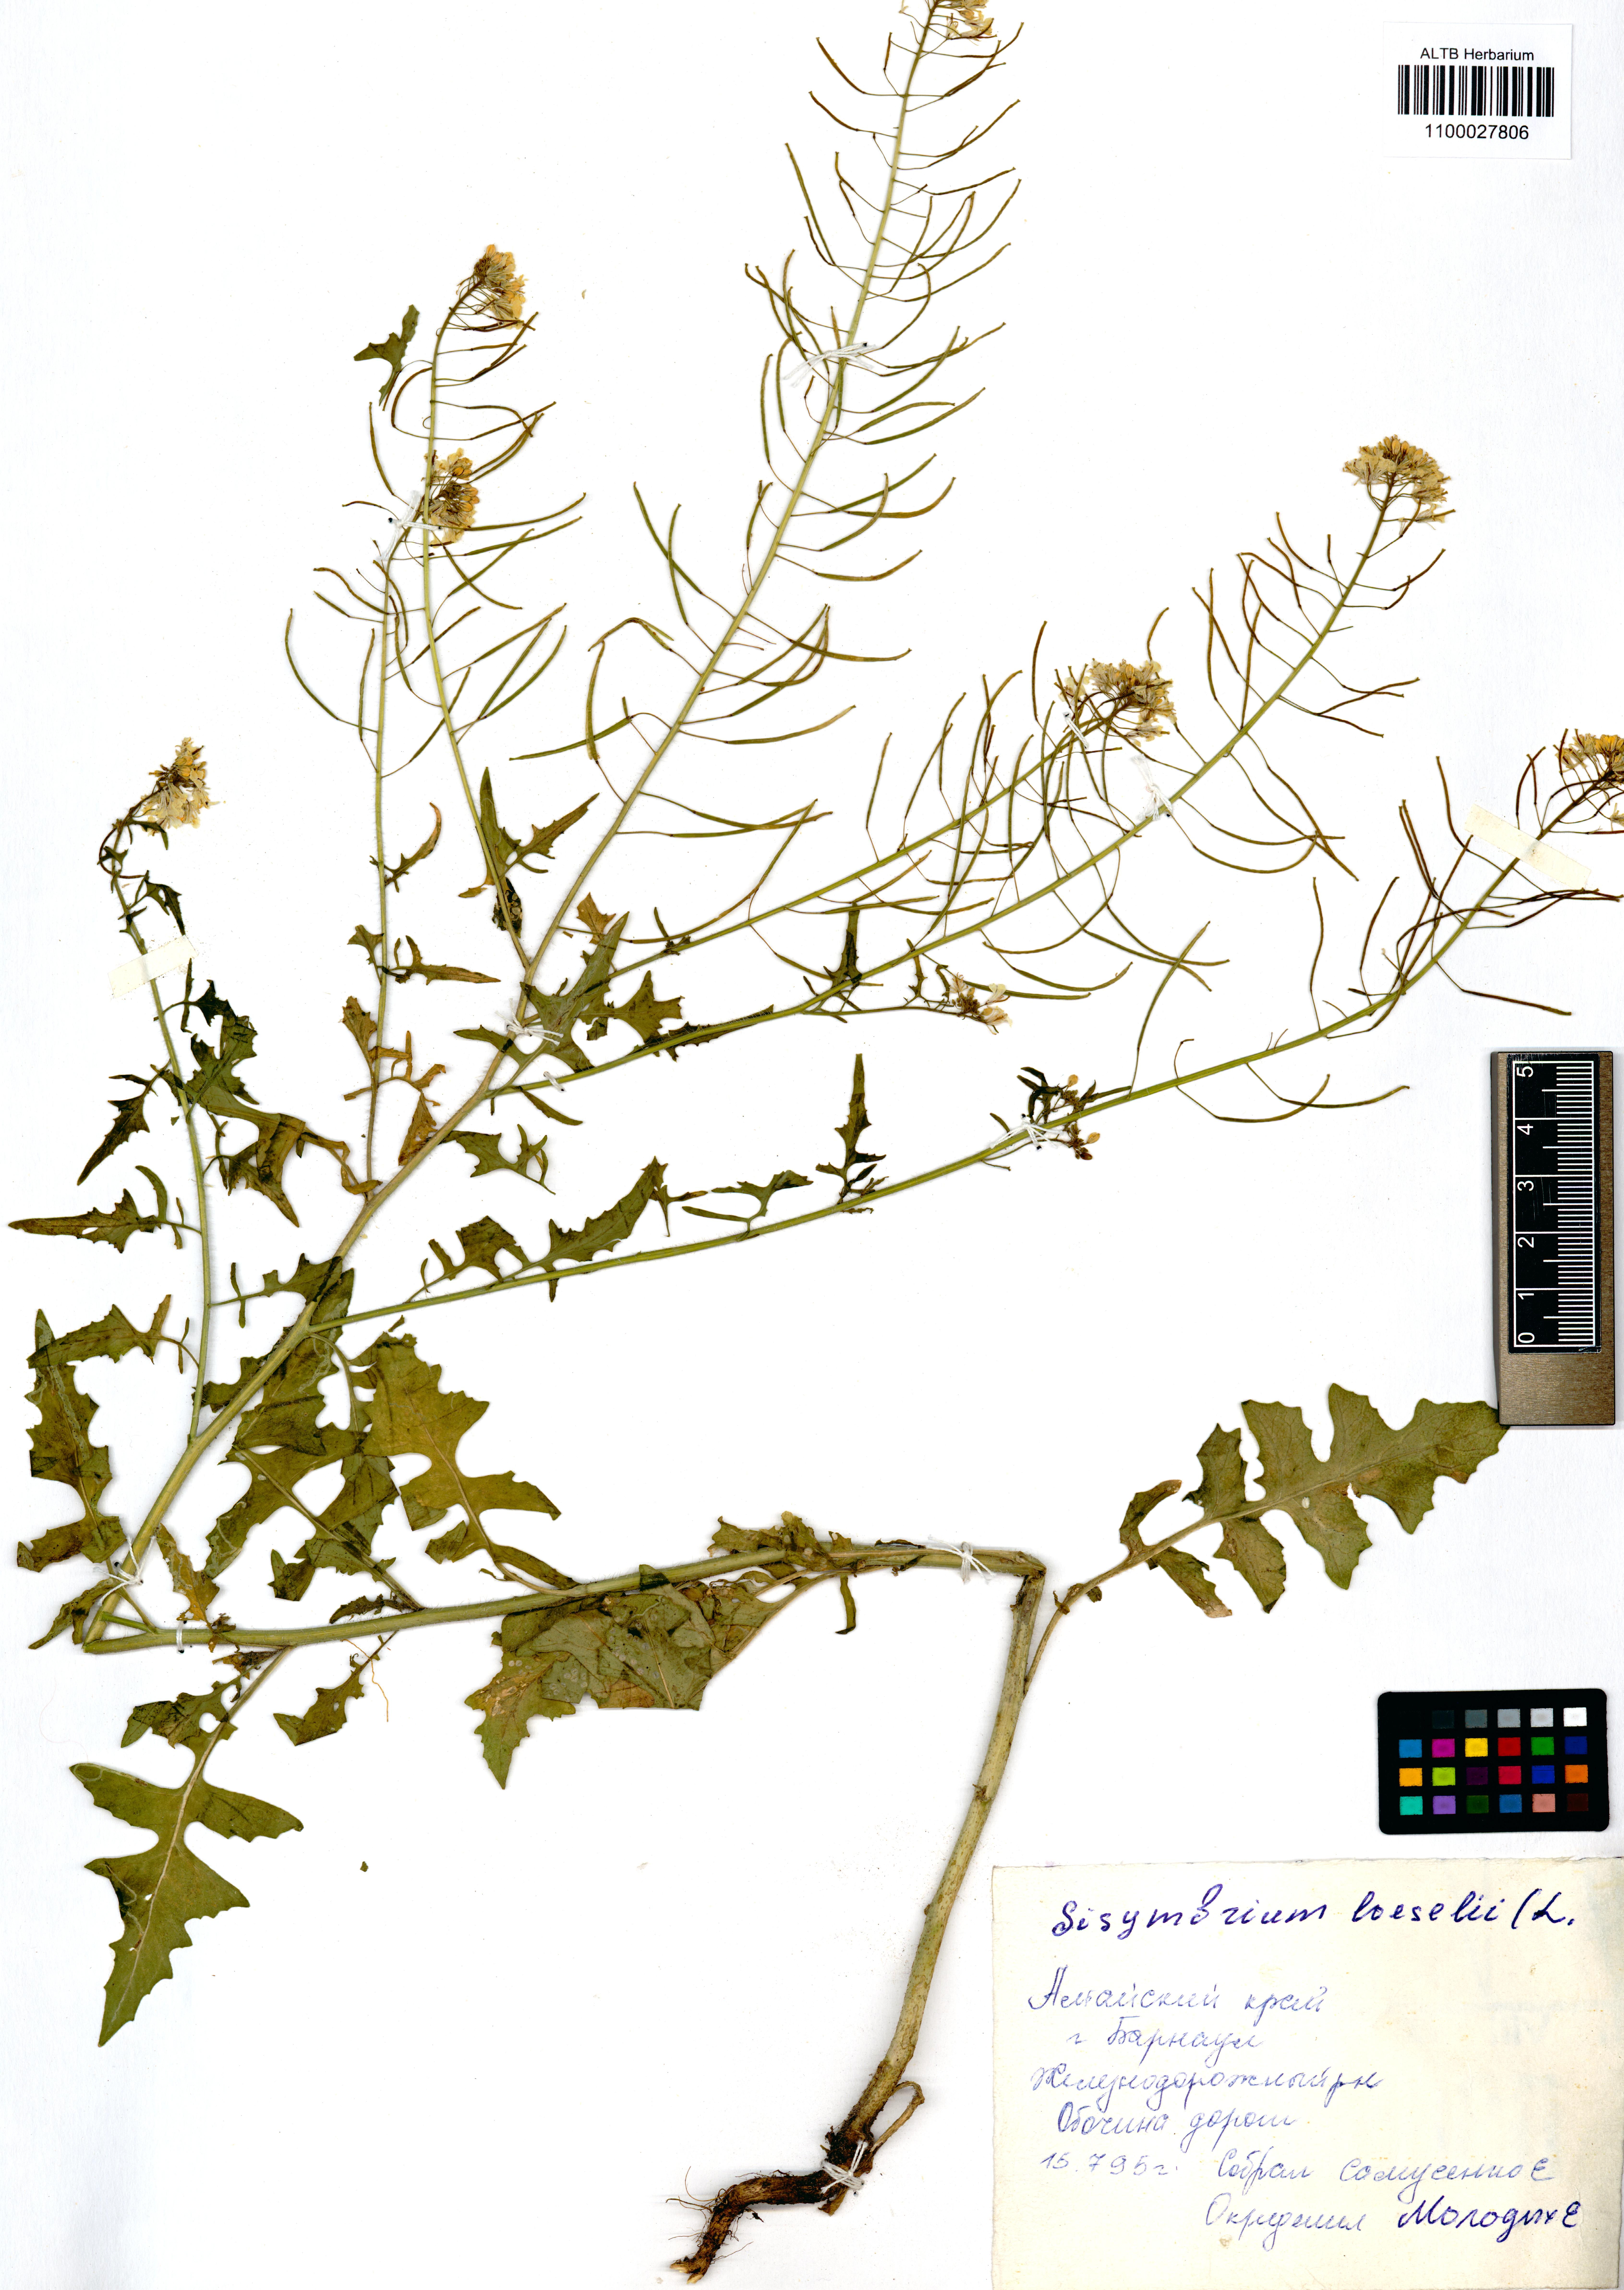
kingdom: Plantae
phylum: Tracheophyta
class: Magnoliopsida
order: Brassicales
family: Brassicaceae
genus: Sisymbrium
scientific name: Sisymbrium loeselii
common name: False london-rocket
